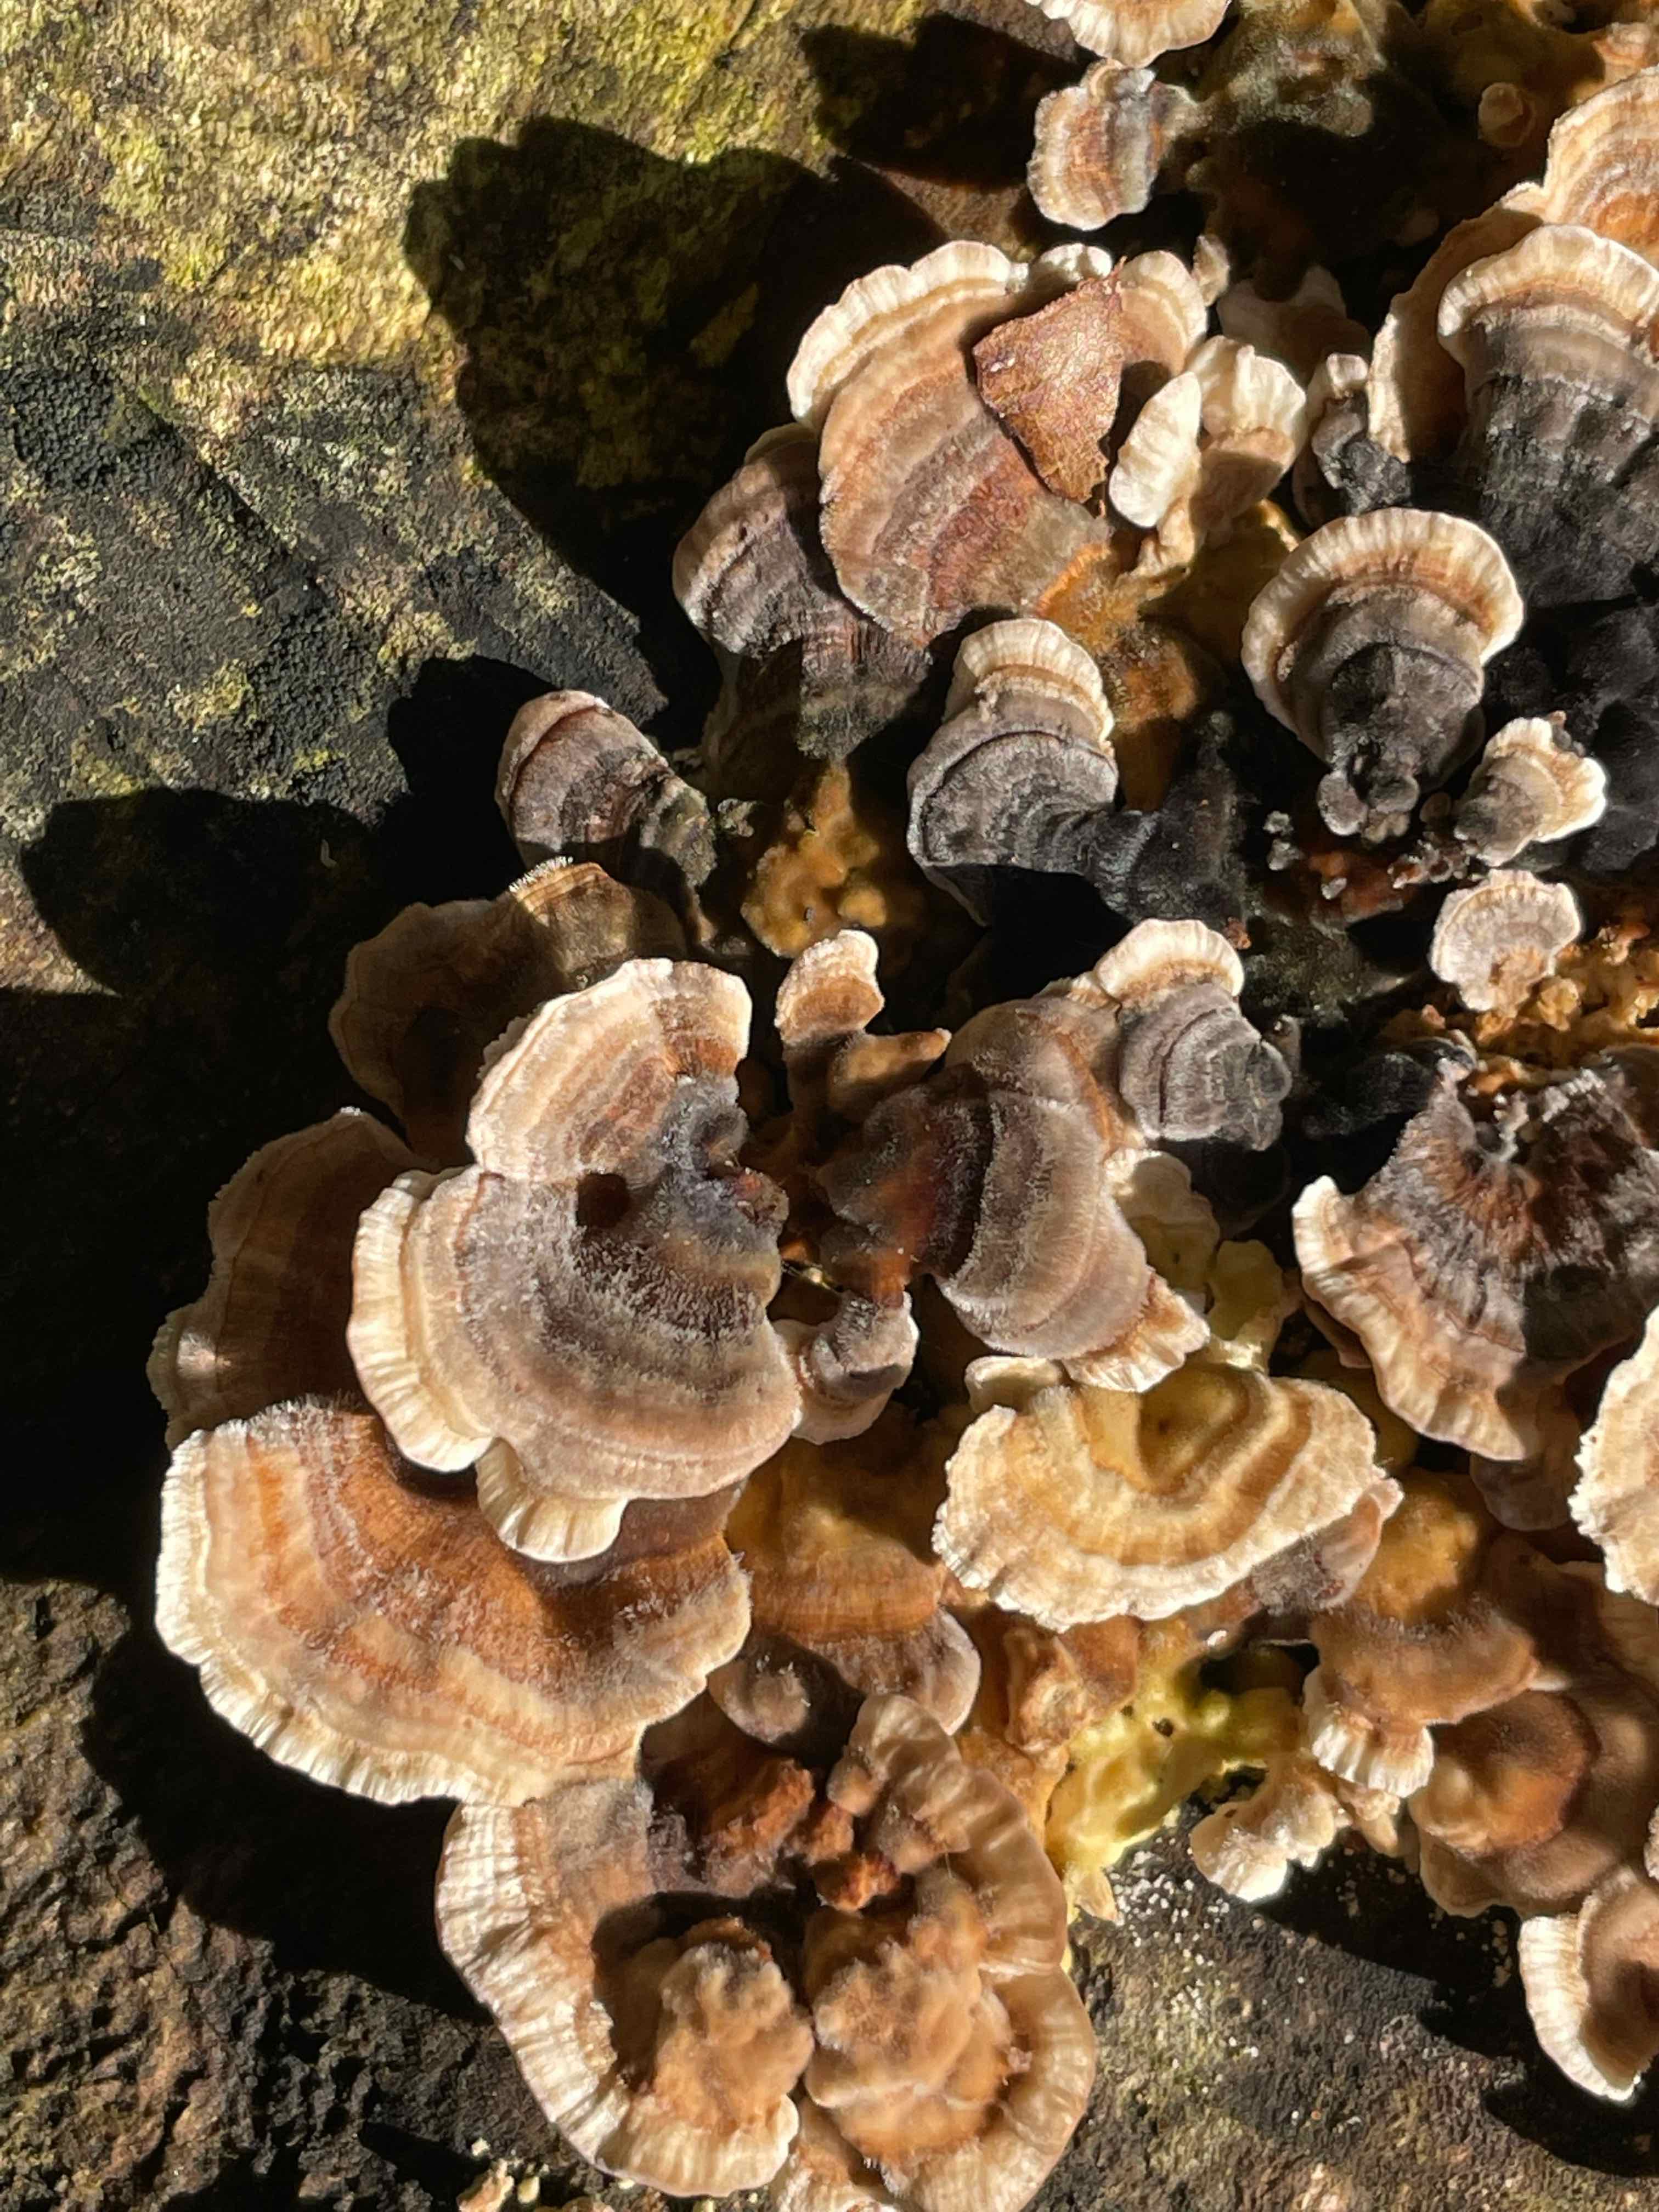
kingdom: Fungi
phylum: Basidiomycota
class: Agaricomycetes
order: Polyporales
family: Polyporaceae
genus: Trametes
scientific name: Trametes versicolor
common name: broget læderporesvamp
